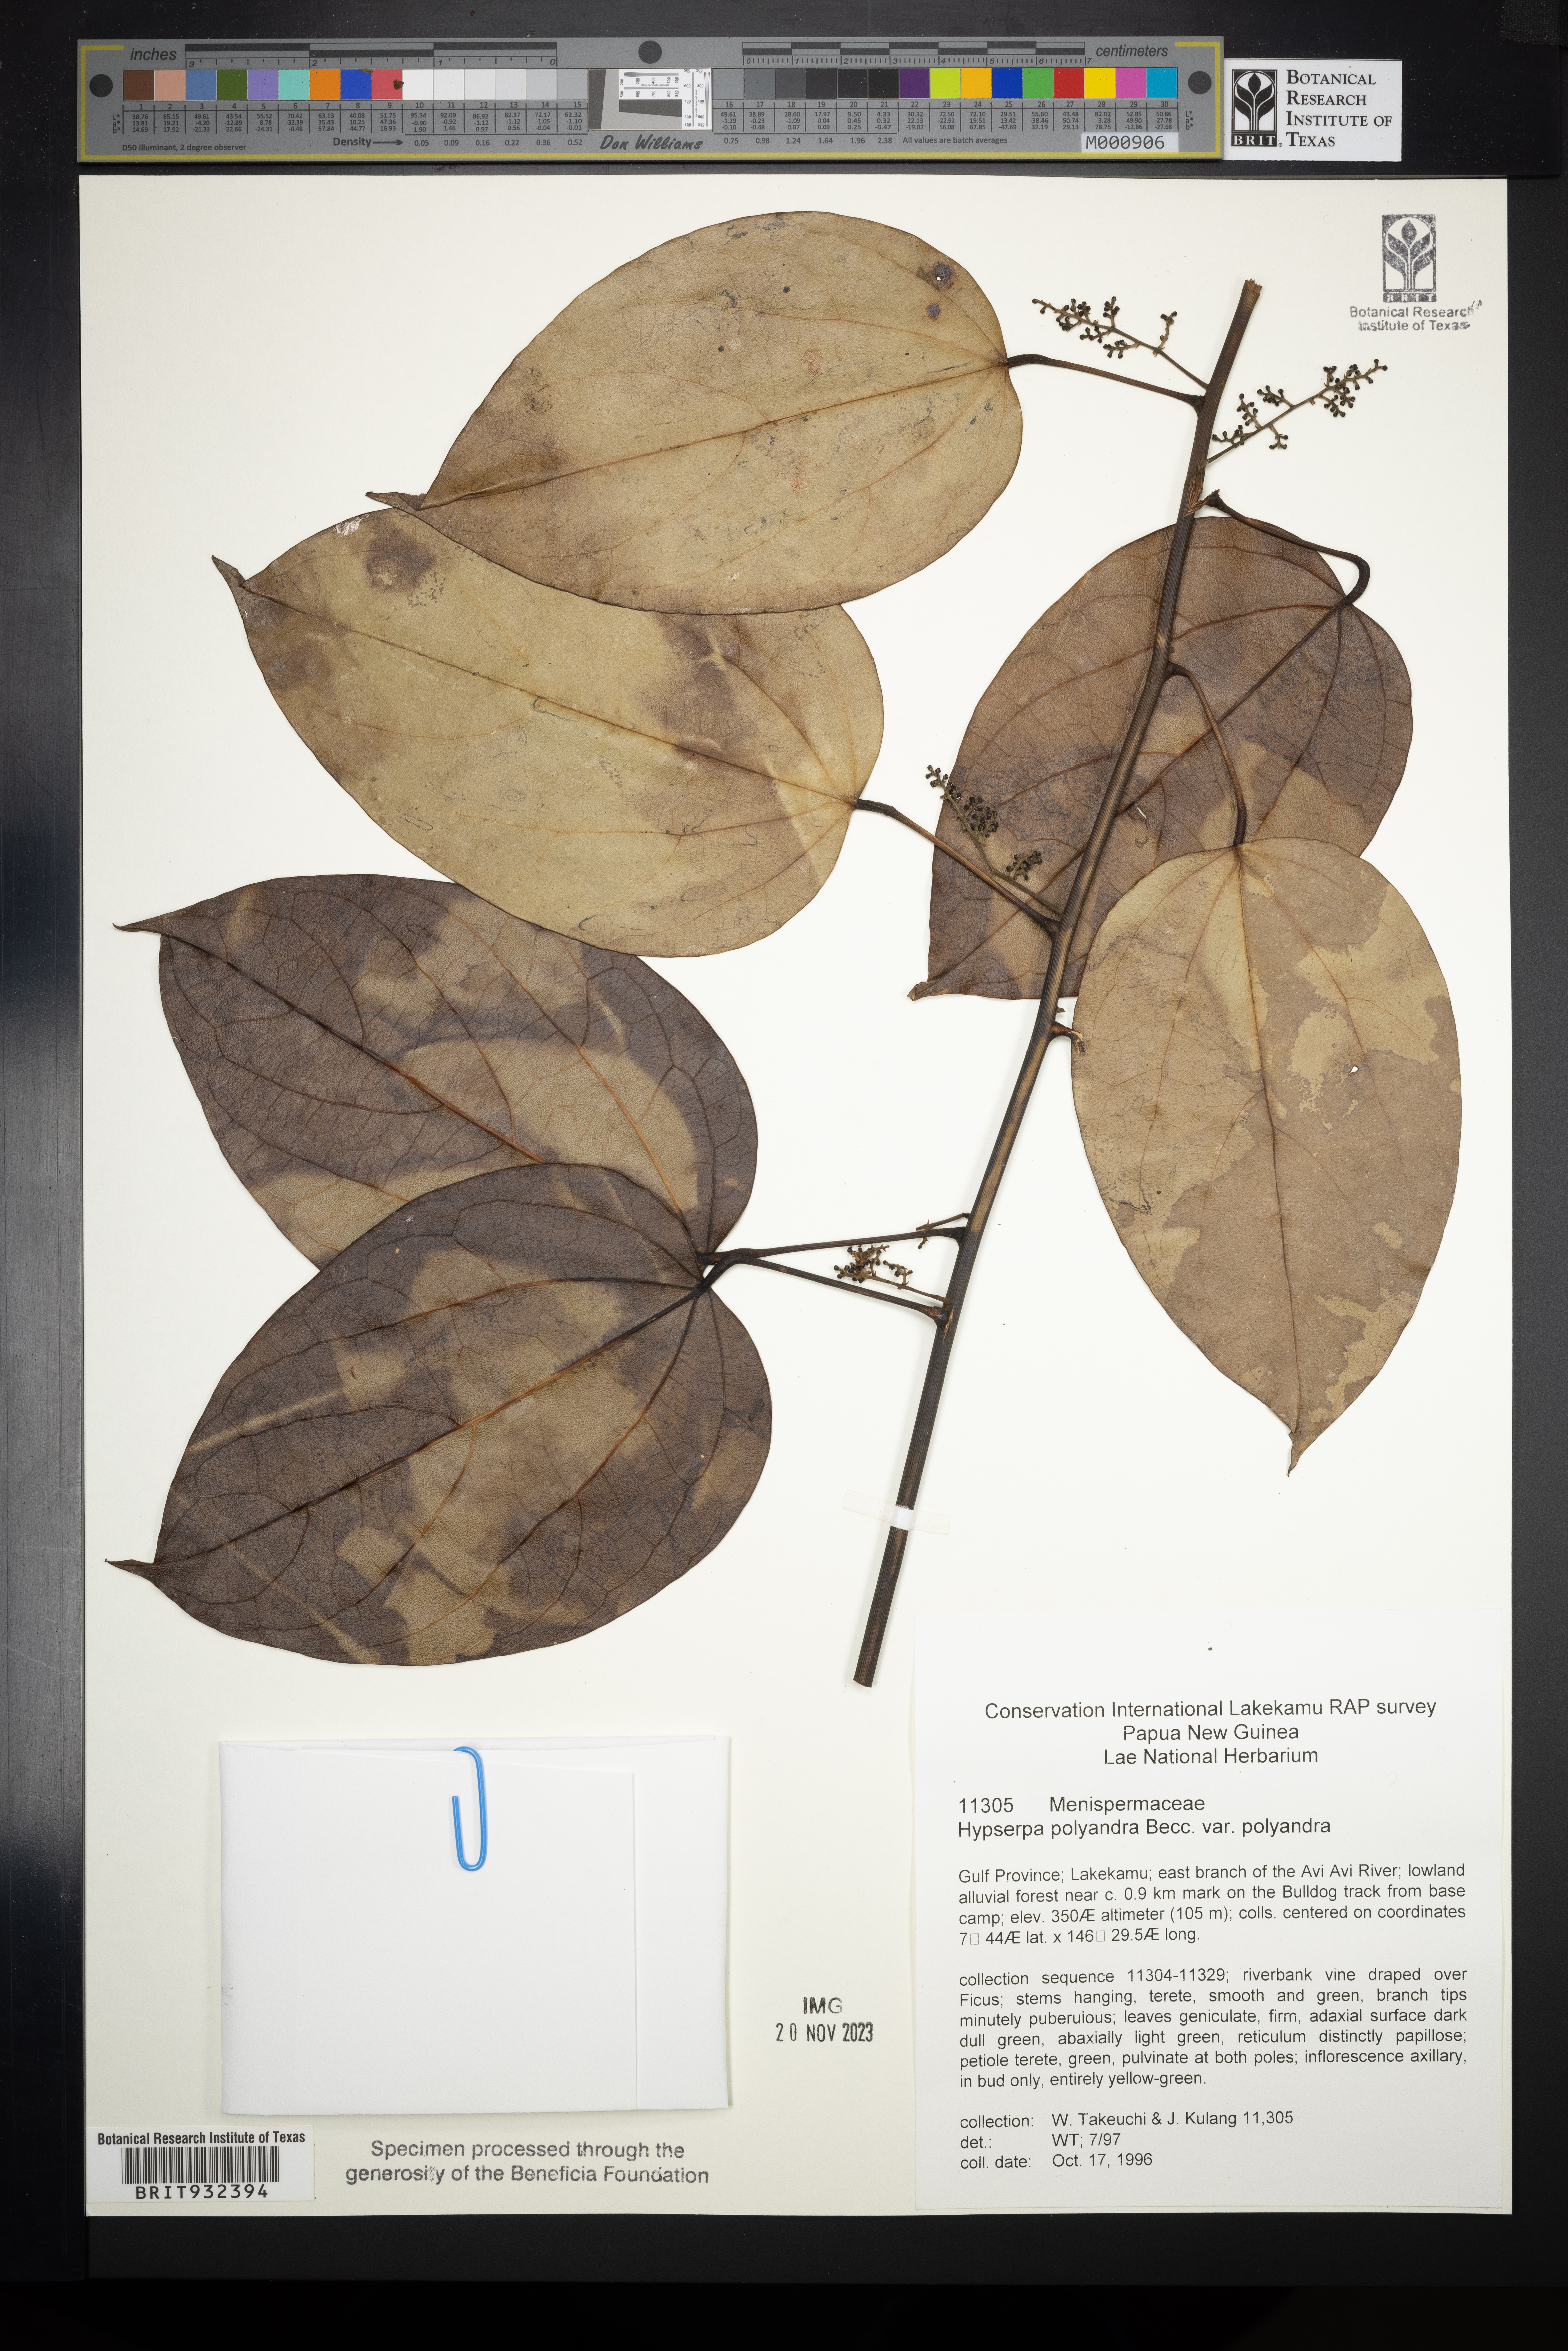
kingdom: Plantae
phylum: Tracheophyta
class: Magnoliopsida
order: Ranunculales
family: Menispermaceae
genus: Hypserpa
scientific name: Hypserpa
